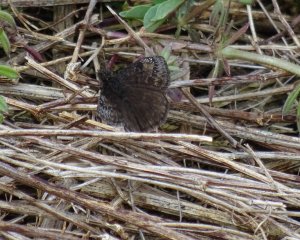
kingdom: Animalia
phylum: Arthropoda
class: Insecta
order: Lepidoptera
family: Hesperiidae
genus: Gesta
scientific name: Gesta
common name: Wild Indigo Duskywing
